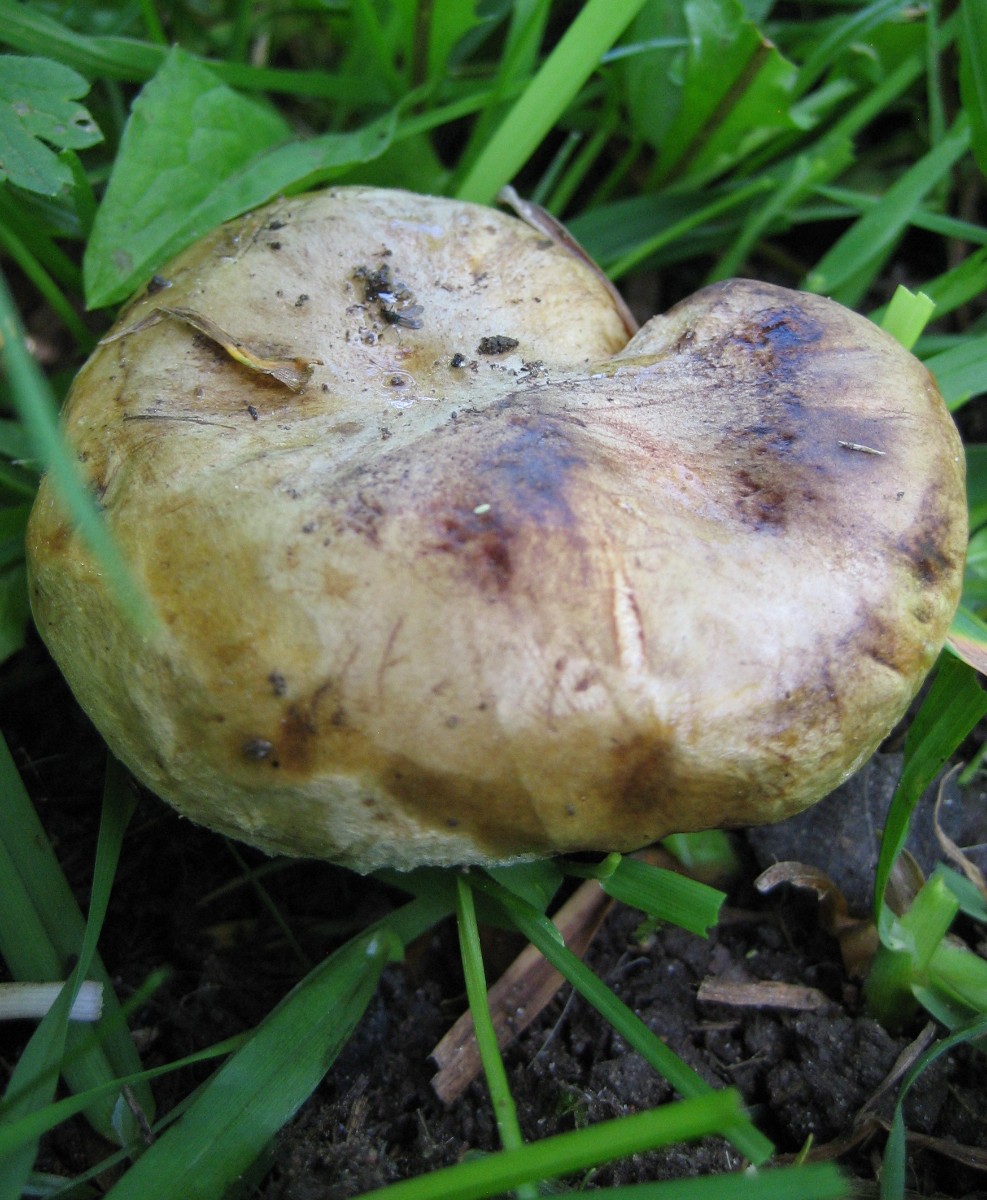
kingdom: Fungi
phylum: Basidiomycota
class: Agaricomycetes
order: Boletales
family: Paxillaceae
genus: Paxillus
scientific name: Paxillus obscurisporus
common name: mahognisporet netbladhat
